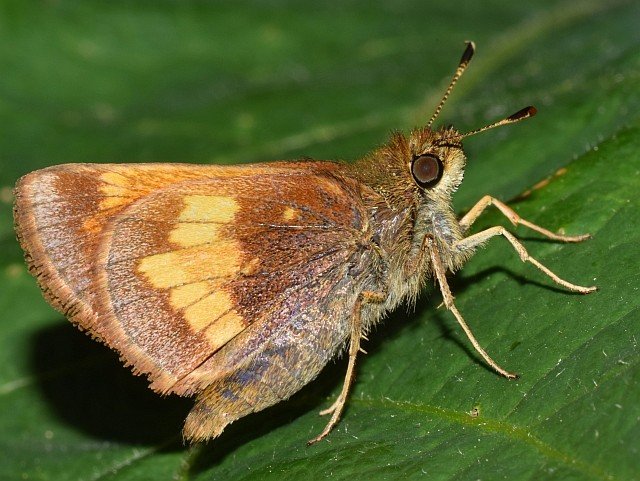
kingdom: Animalia
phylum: Arthropoda
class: Insecta
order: Lepidoptera
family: Hesperiidae
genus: Lon
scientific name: Lon hobomok
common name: Hobomok Skipper
